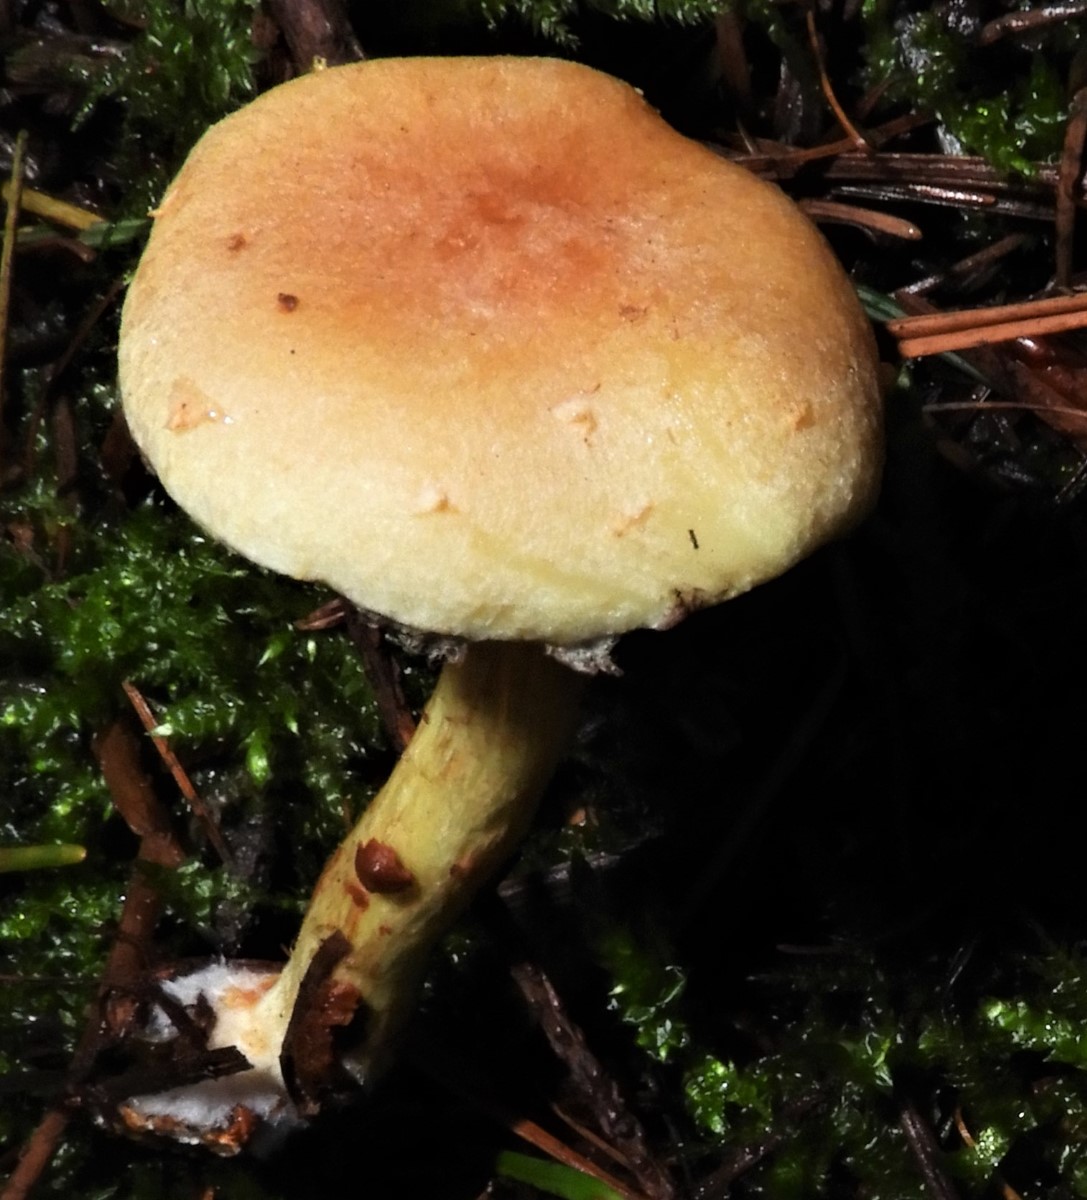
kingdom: Fungi
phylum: Basidiomycota
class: Agaricomycetes
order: Agaricales
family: Strophariaceae
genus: Hypholoma
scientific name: Hypholoma fasciculare
